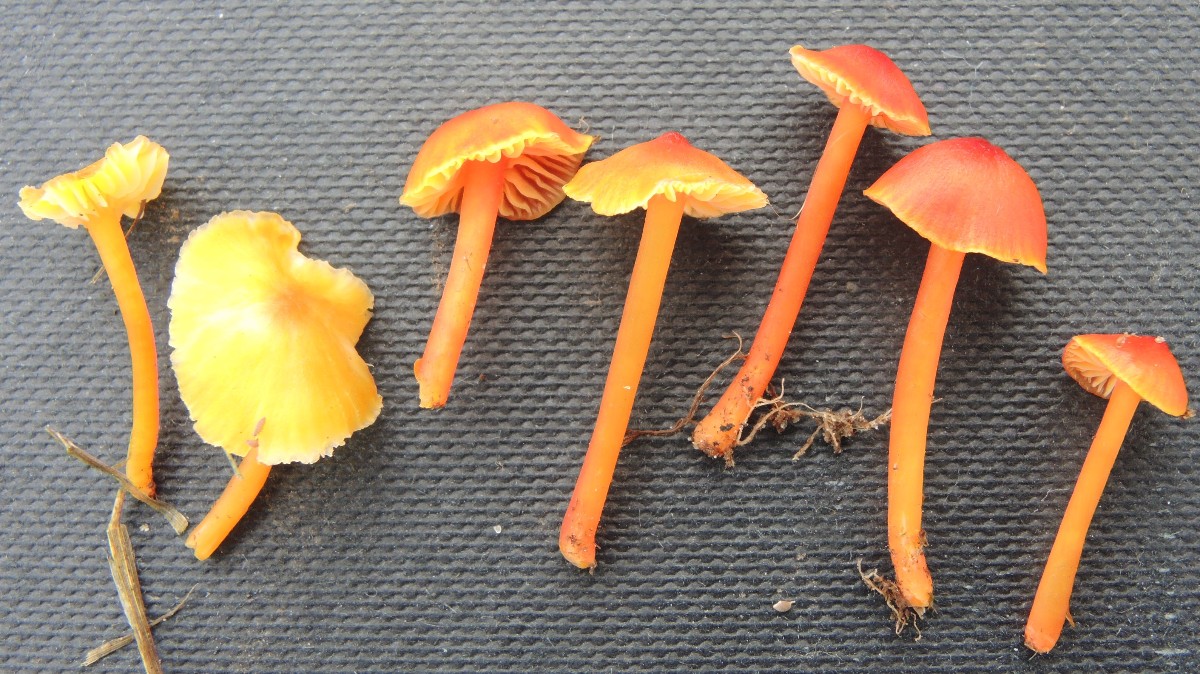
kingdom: Fungi
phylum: Basidiomycota
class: Agaricomycetes
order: Agaricales
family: Hygrophoraceae
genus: Hygrocybe
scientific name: Hygrocybe subpapillata
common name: papil-vokshat
